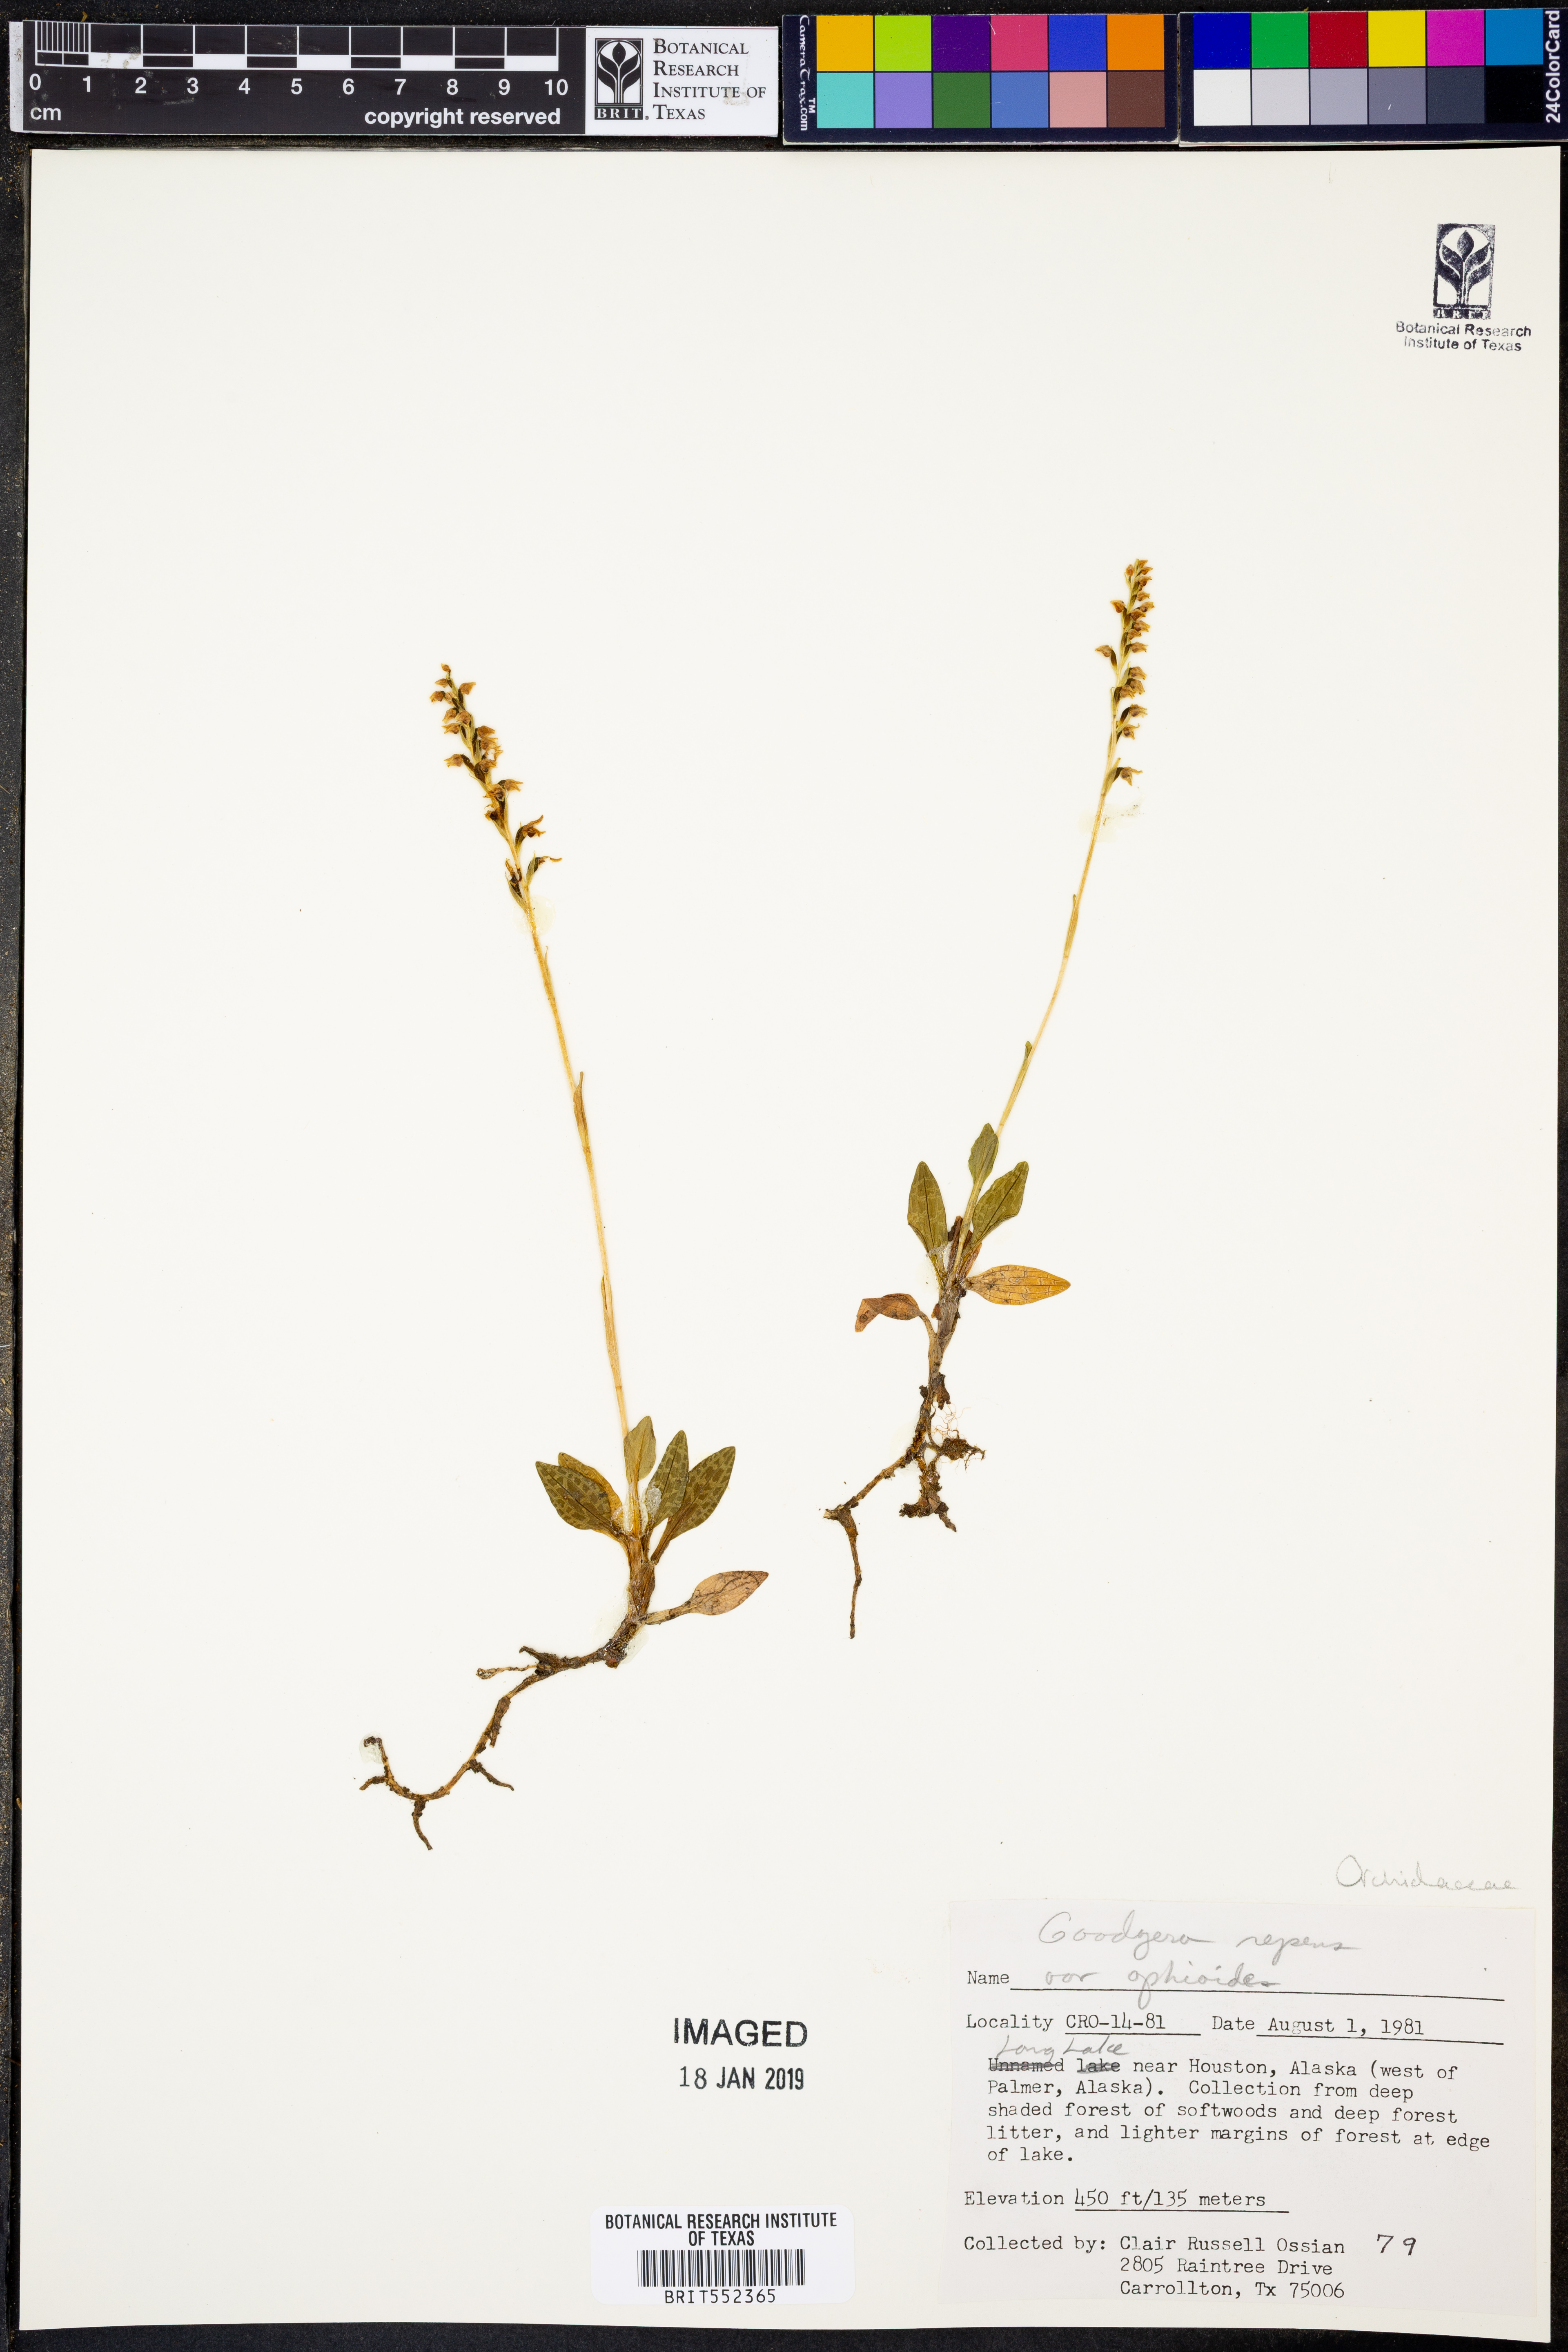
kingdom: Plantae
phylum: Tracheophyta
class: Liliopsida
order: Asparagales
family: Orchidaceae
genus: Goodyera
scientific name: Goodyera repens
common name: Creeping lady's-tresses
